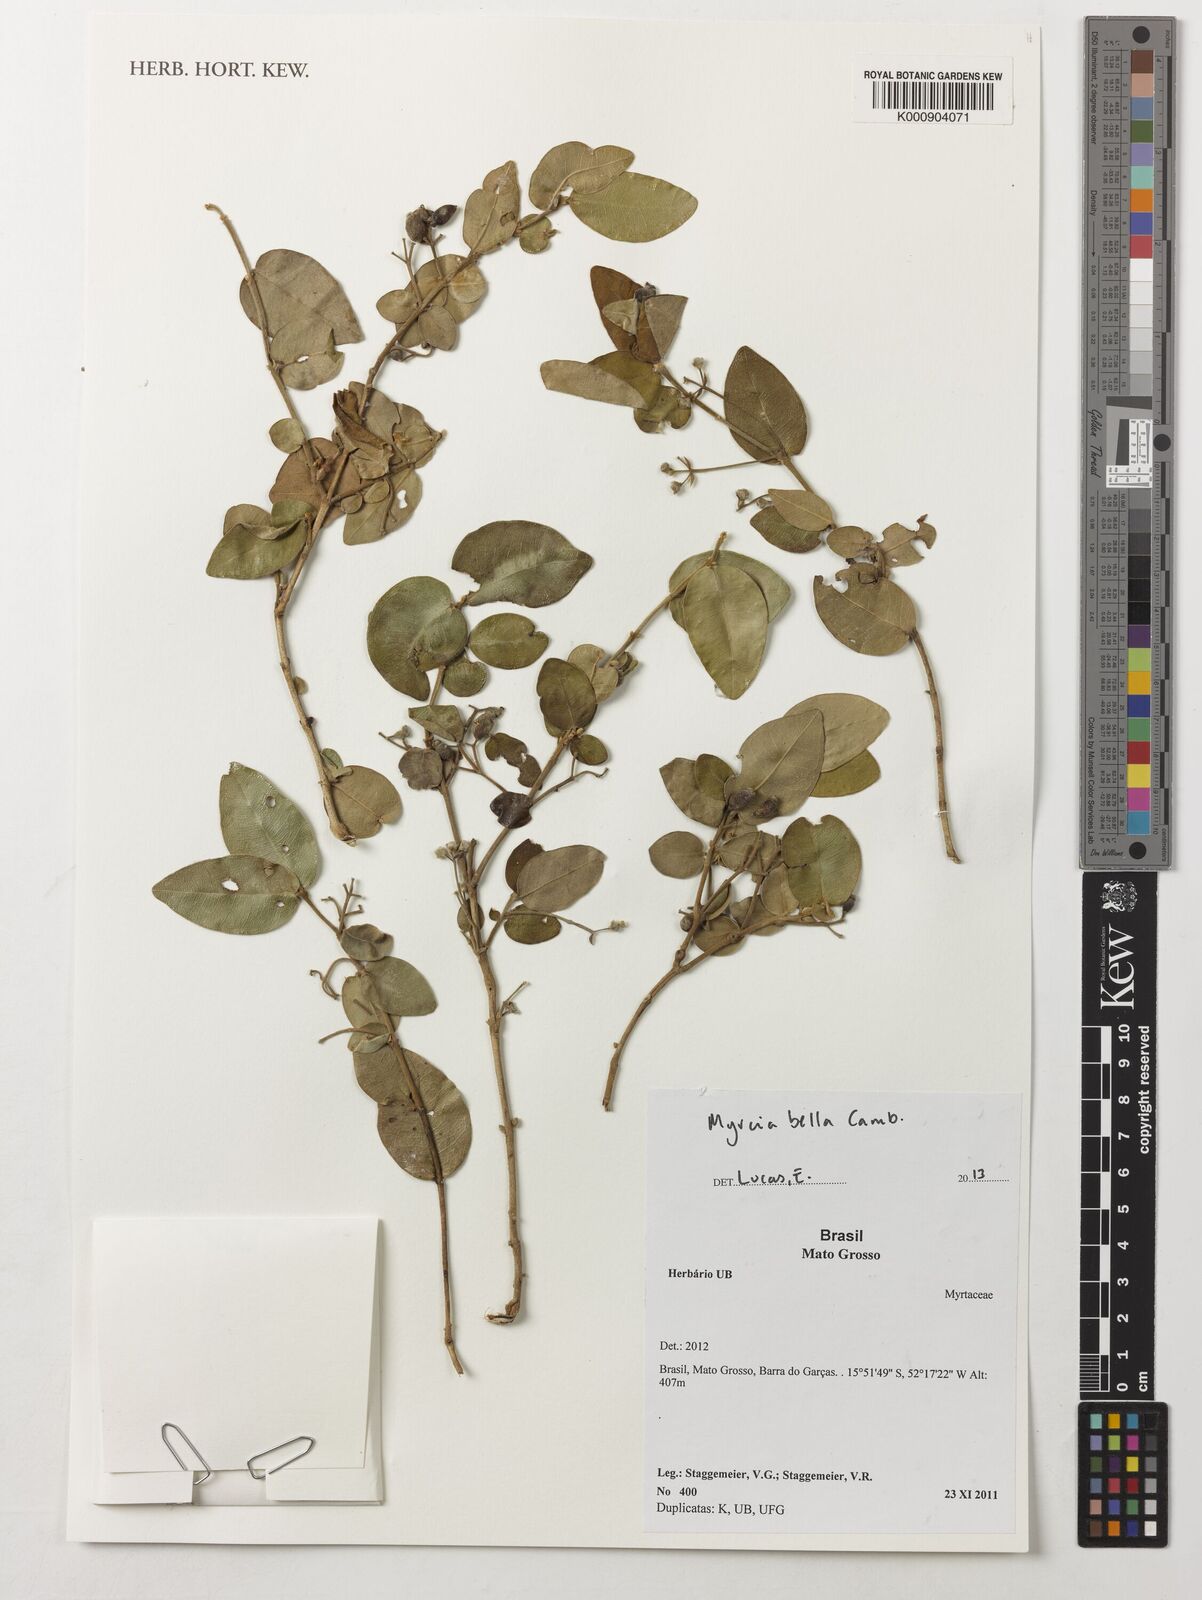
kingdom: Plantae
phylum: Tracheophyta
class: Magnoliopsida
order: Myrtales
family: Myrtaceae
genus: Myrcia
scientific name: Myrcia bella
